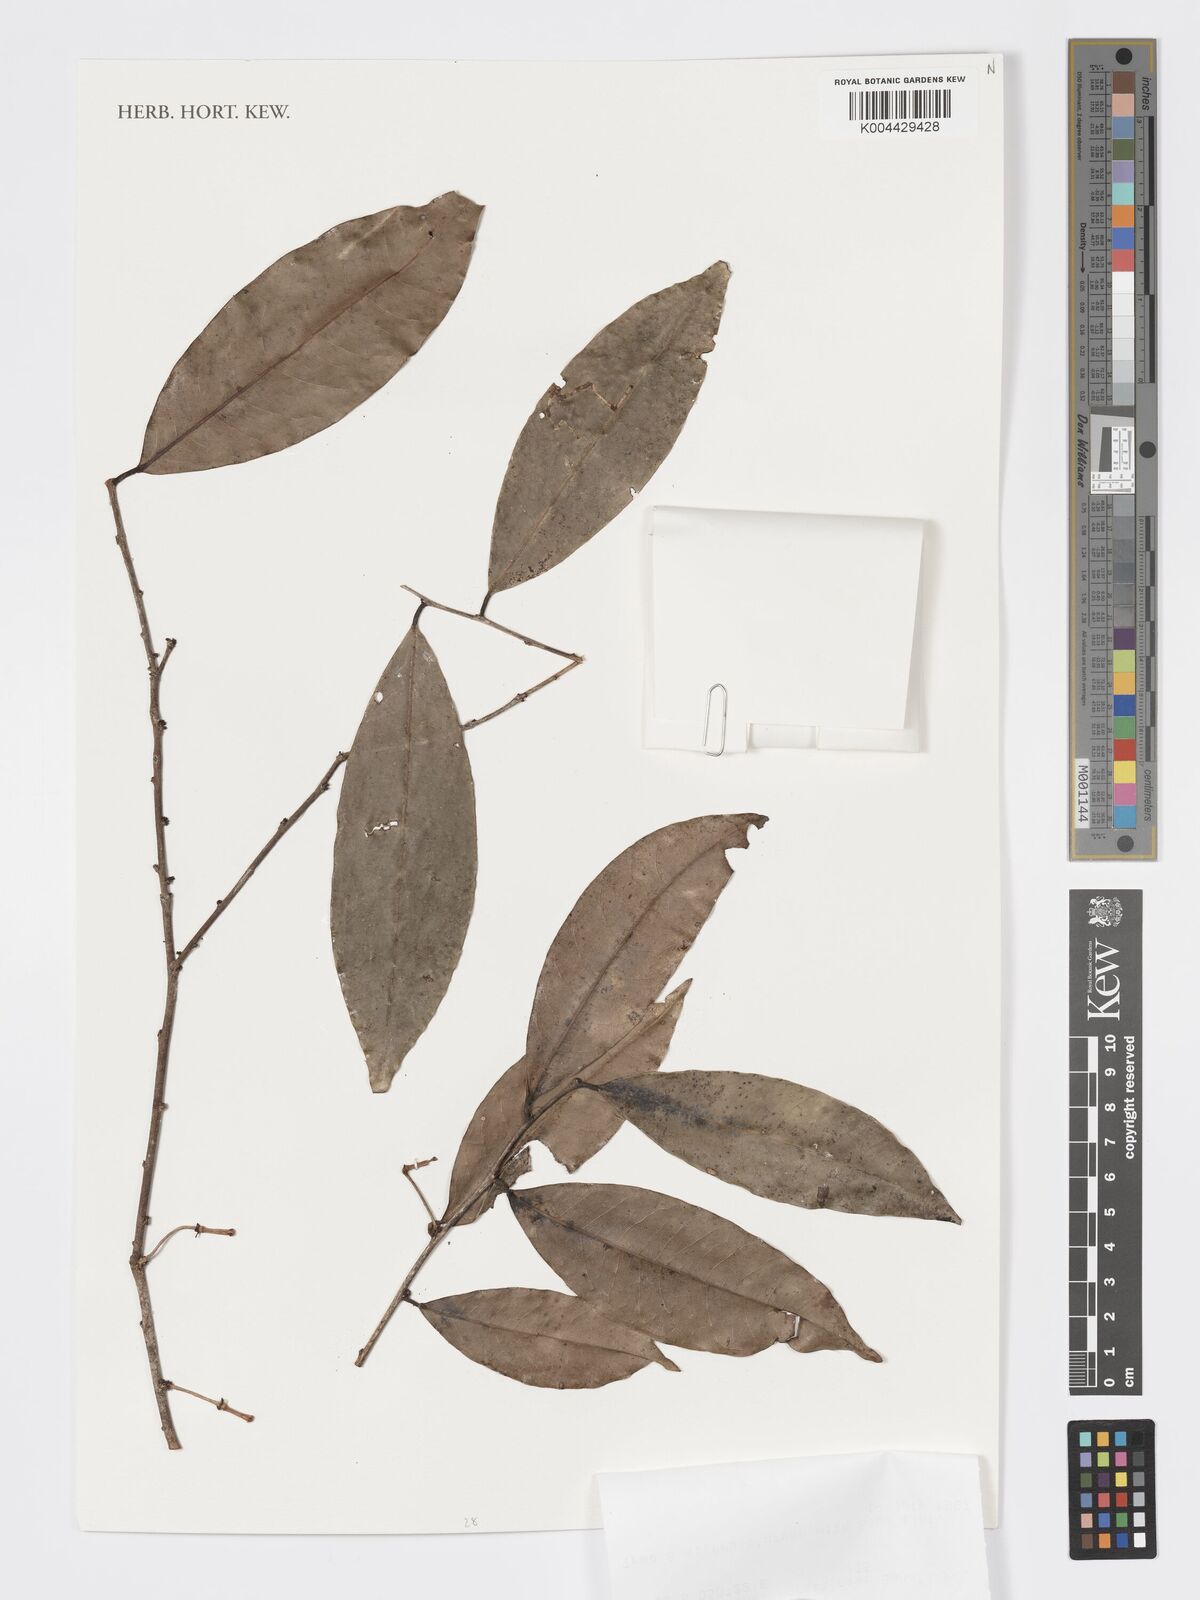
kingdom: Plantae
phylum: Tracheophyta
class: Magnoliopsida
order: Malpighiales
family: Phyllanthaceae
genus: Wielandia
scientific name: Wielandia oblongifolia
